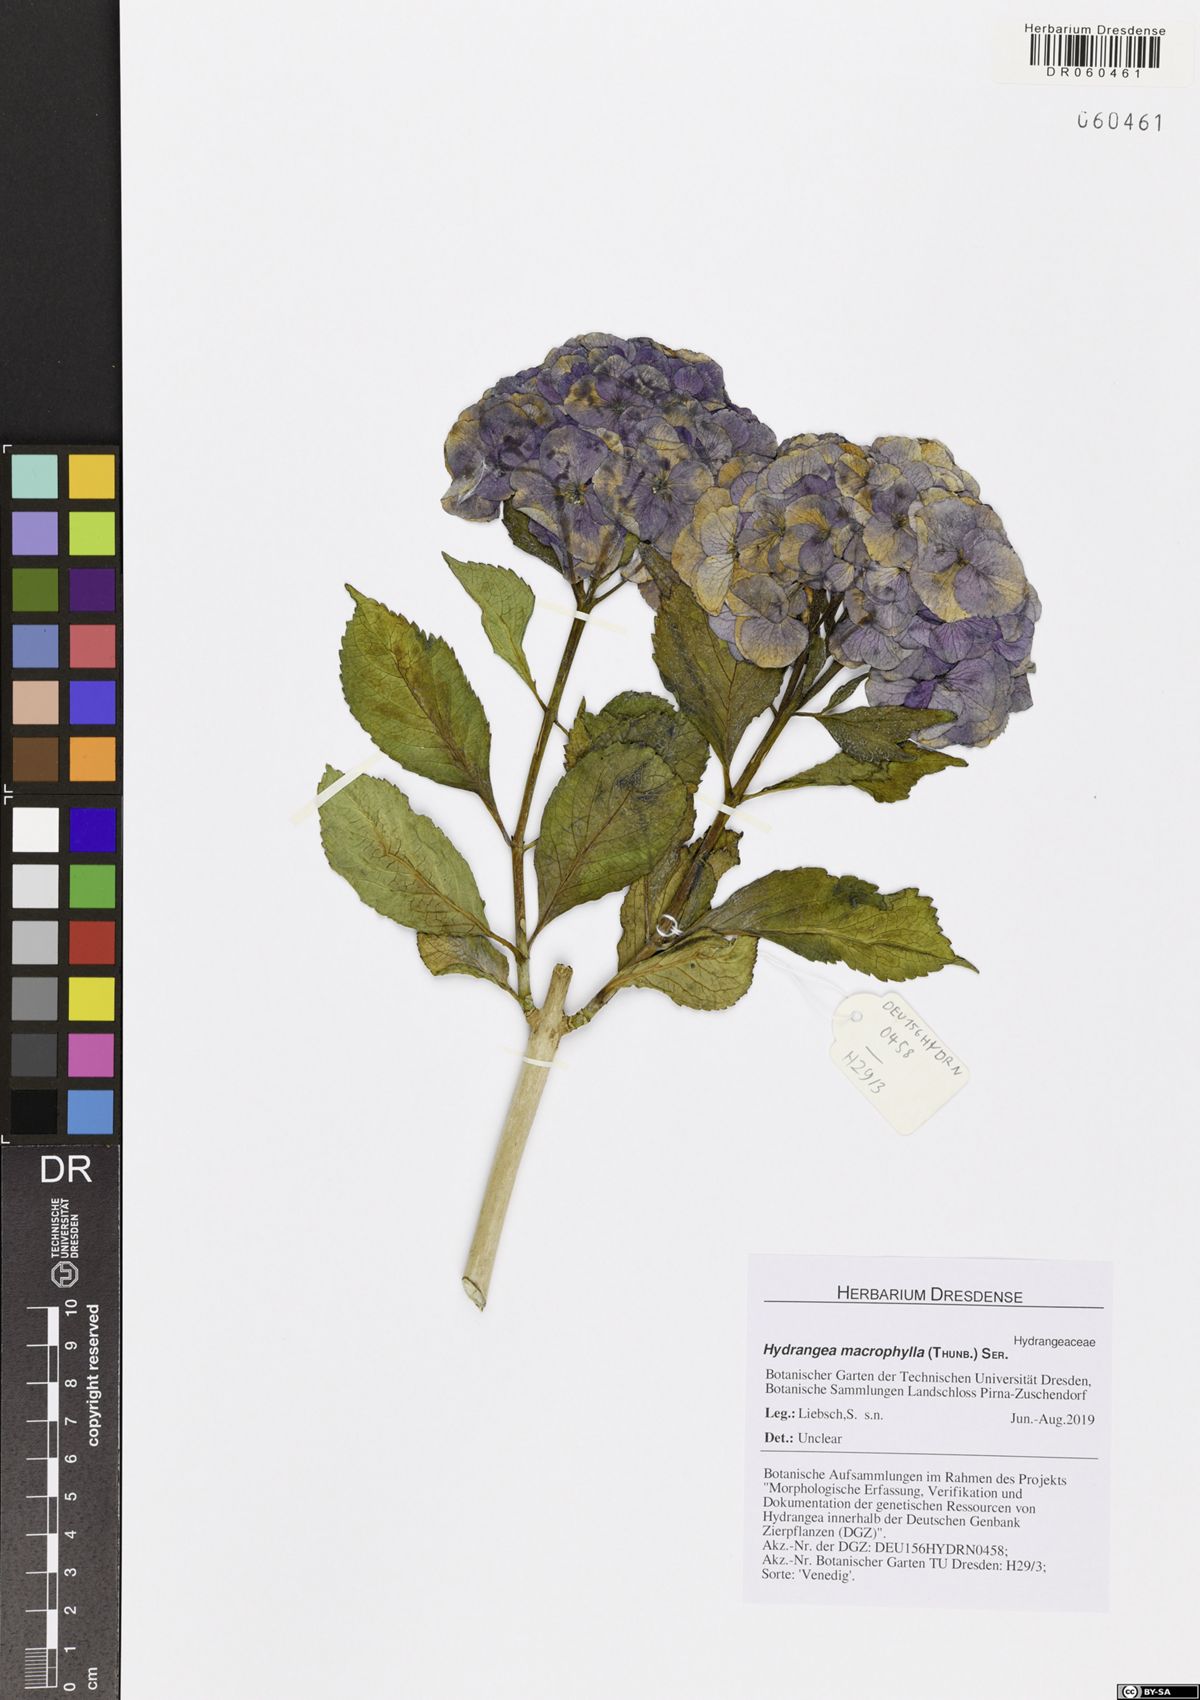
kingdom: Plantae
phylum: Tracheophyta
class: Magnoliopsida
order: Cornales
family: Hydrangeaceae
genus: Hydrangea
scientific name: Hydrangea macrophylla
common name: Hydrangea
